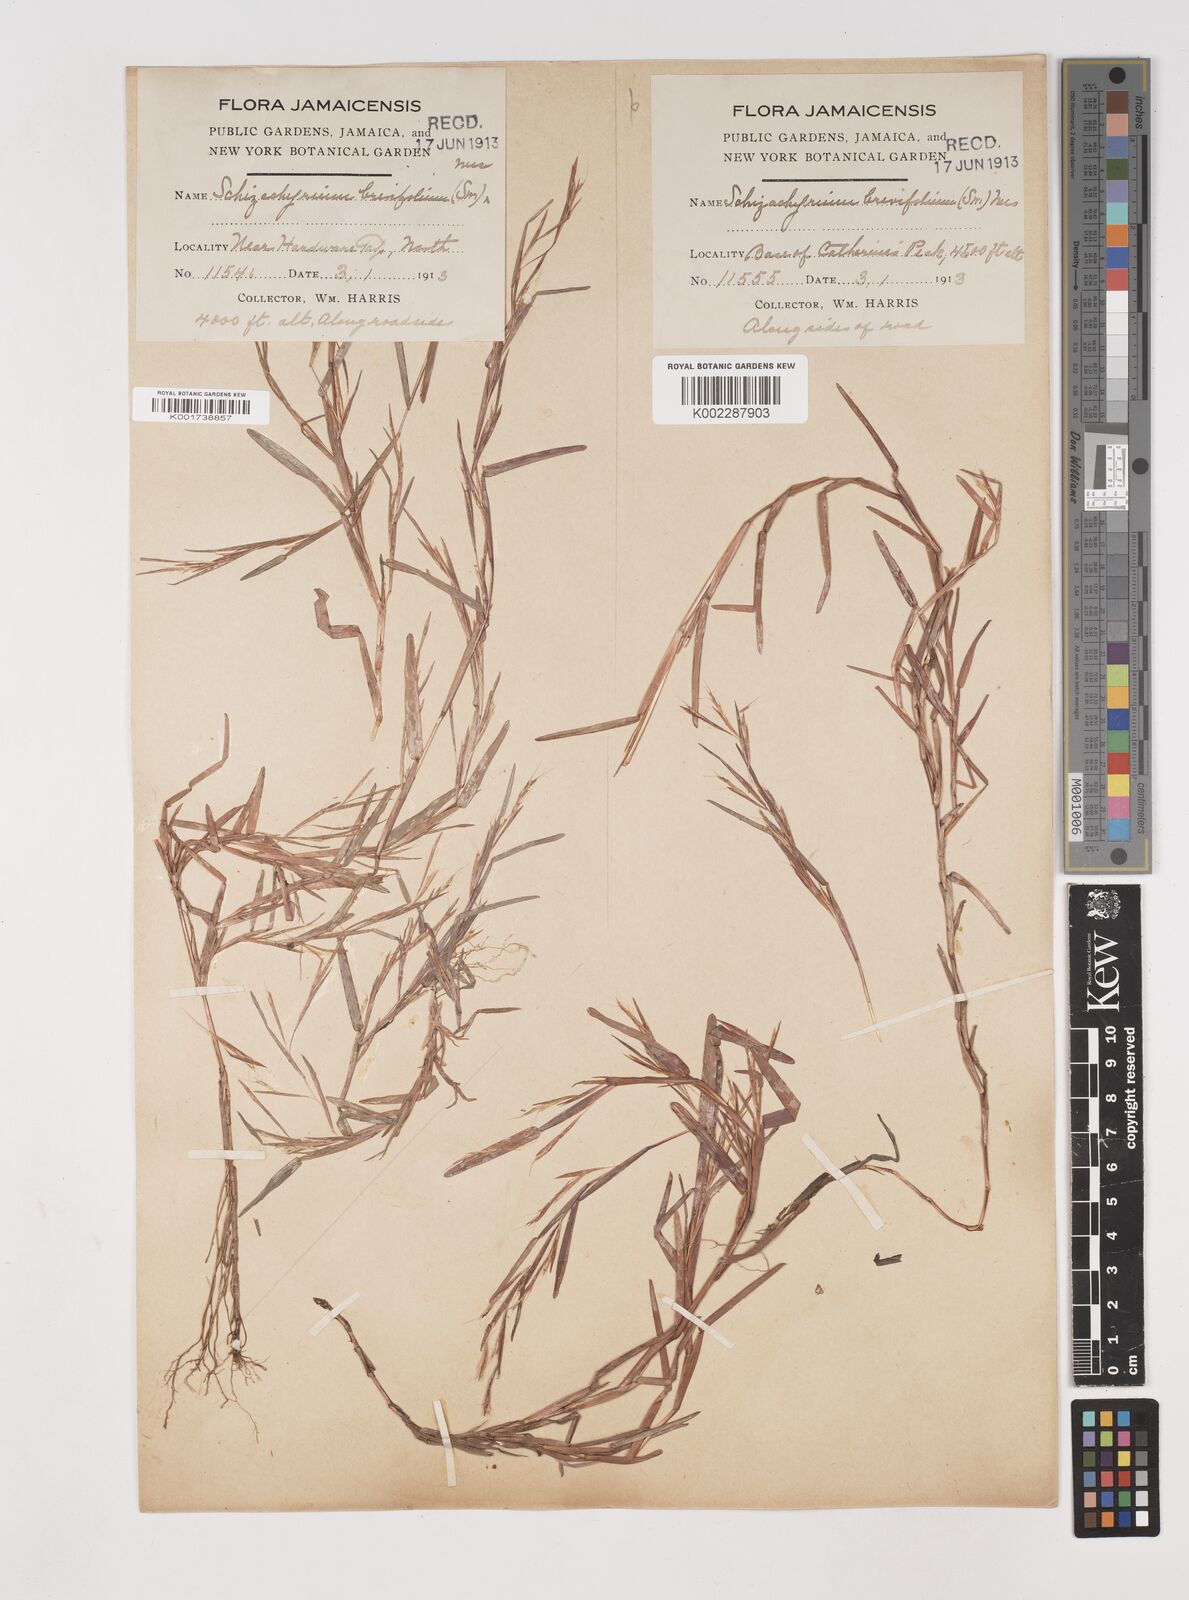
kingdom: Plantae
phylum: Tracheophyta
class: Liliopsida
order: Poales
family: Poaceae
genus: Schizachyrium
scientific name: Schizachyrium brevifolium
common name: Serillo dulce
